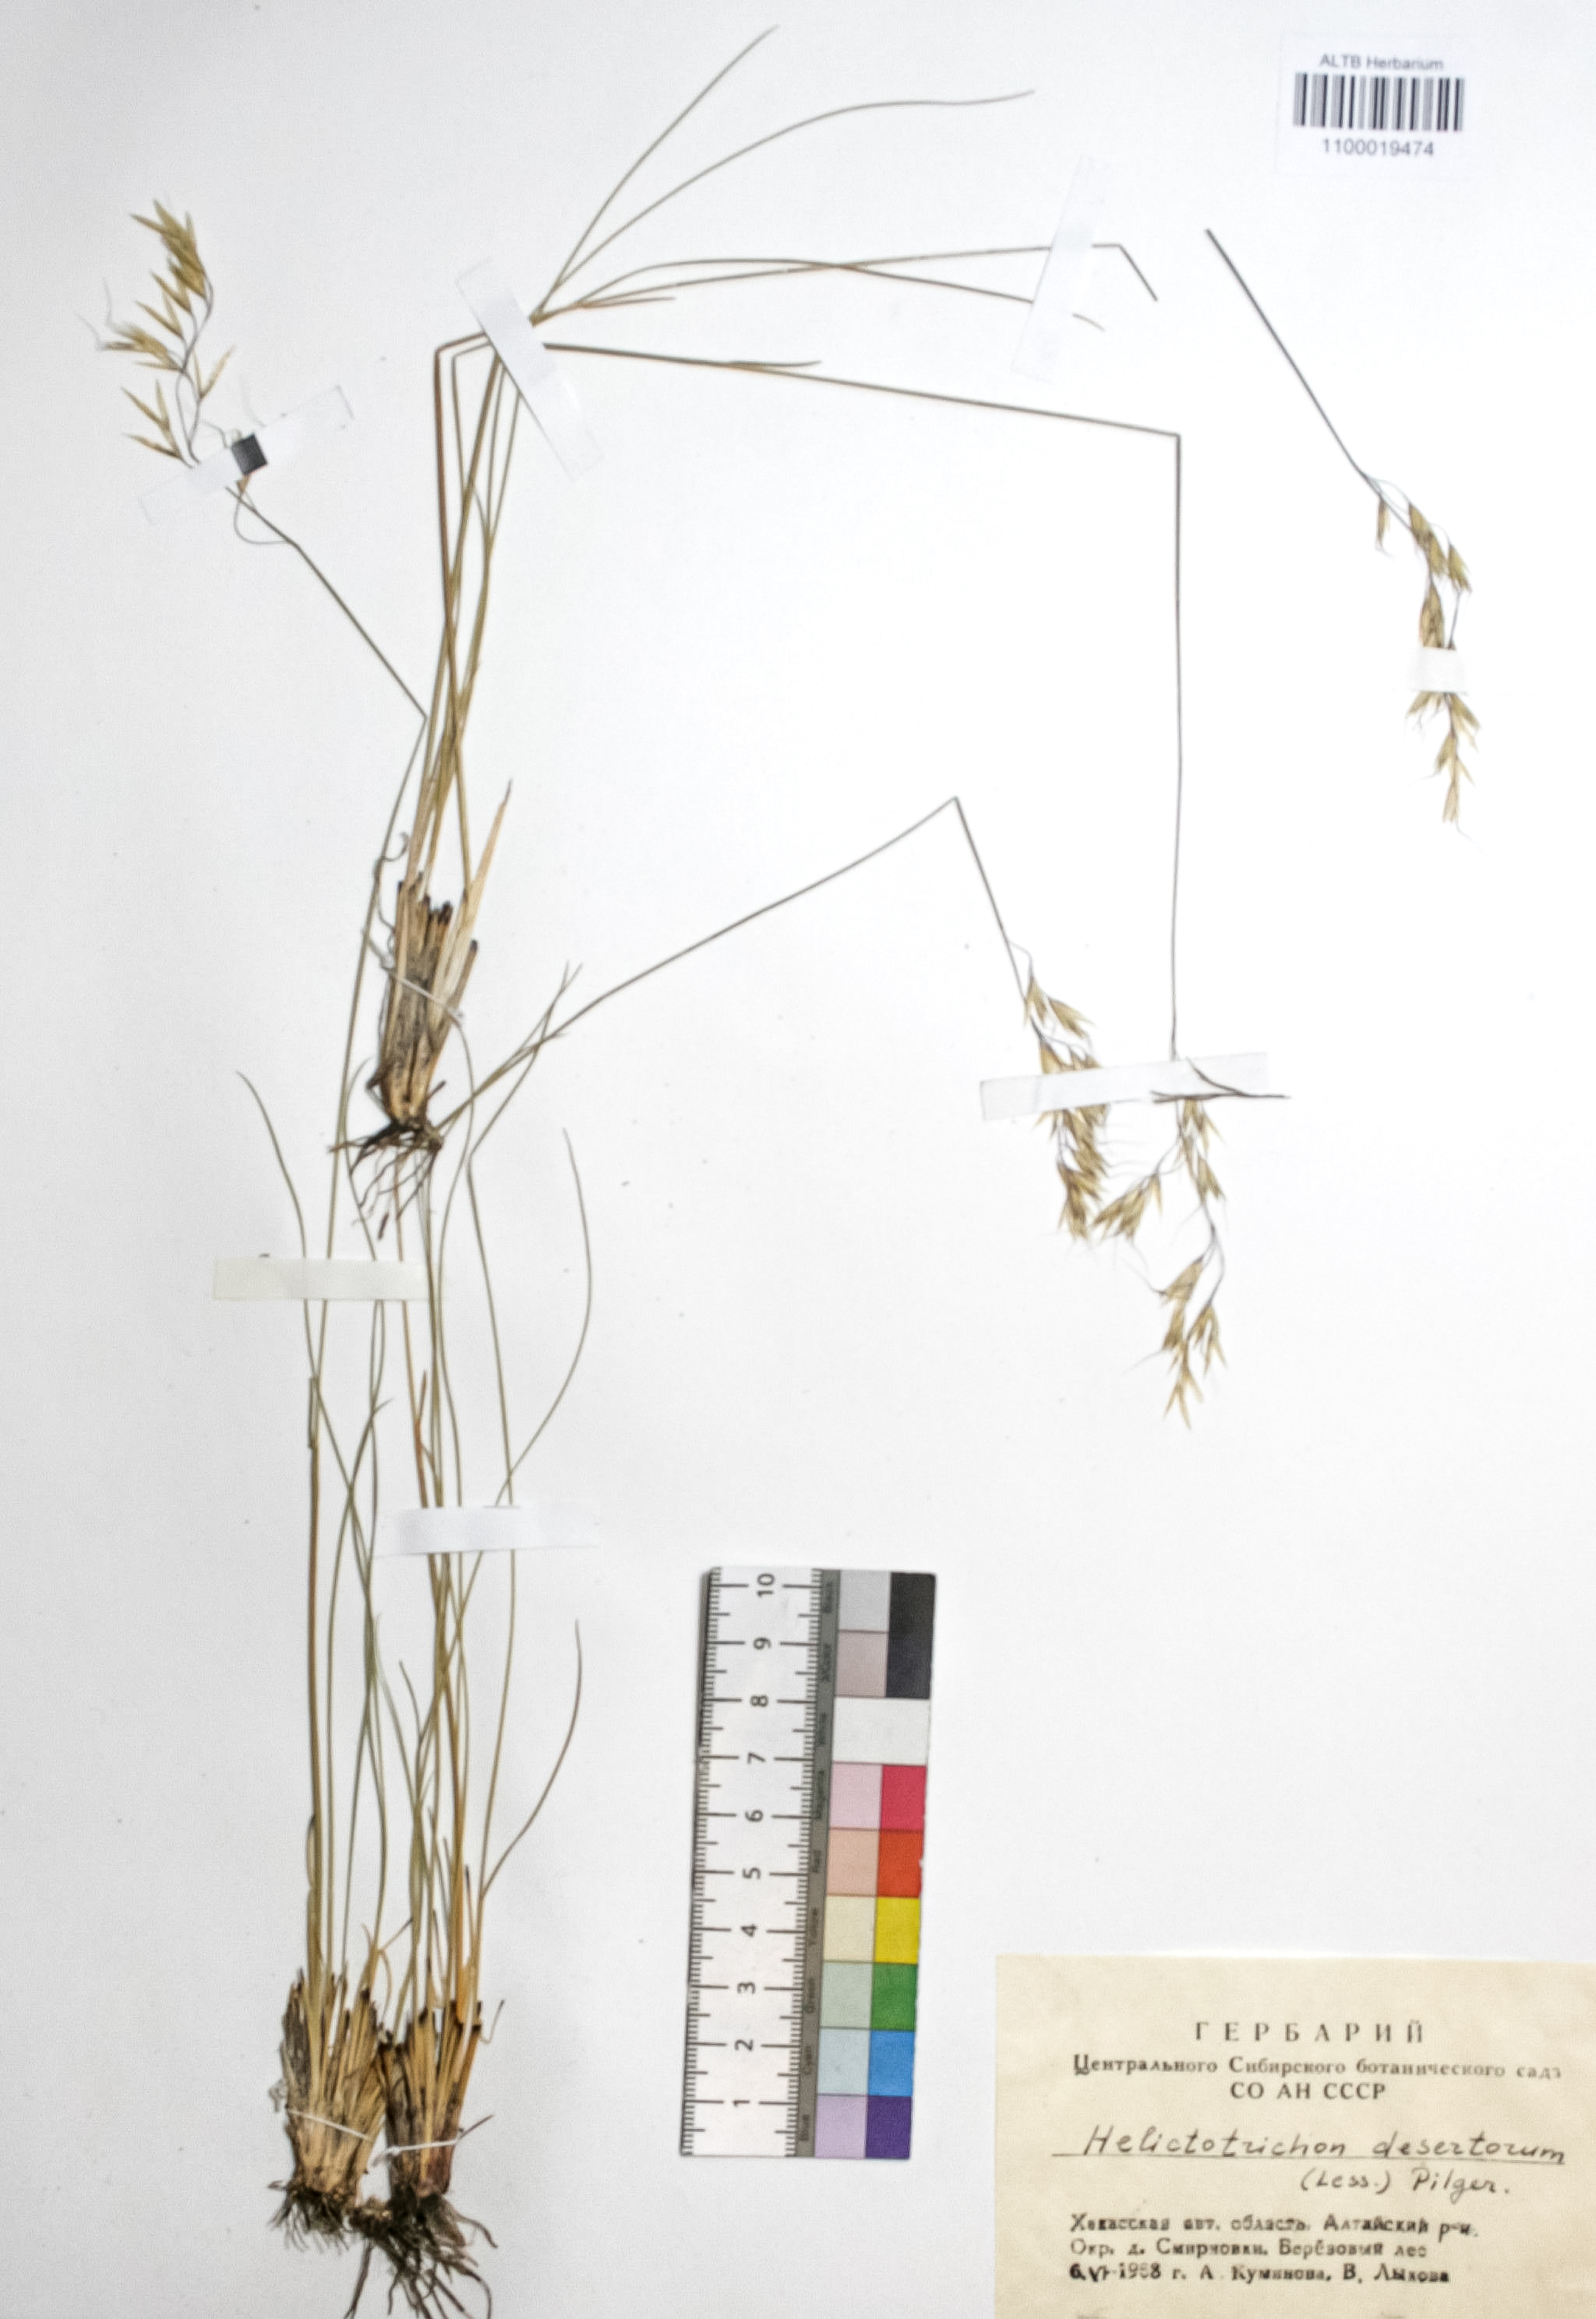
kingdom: Plantae
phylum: Tracheophyta
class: Liliopsida
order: Poales
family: Poaceae
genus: Helictotrichon
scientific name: Helictotrichon desertorum
